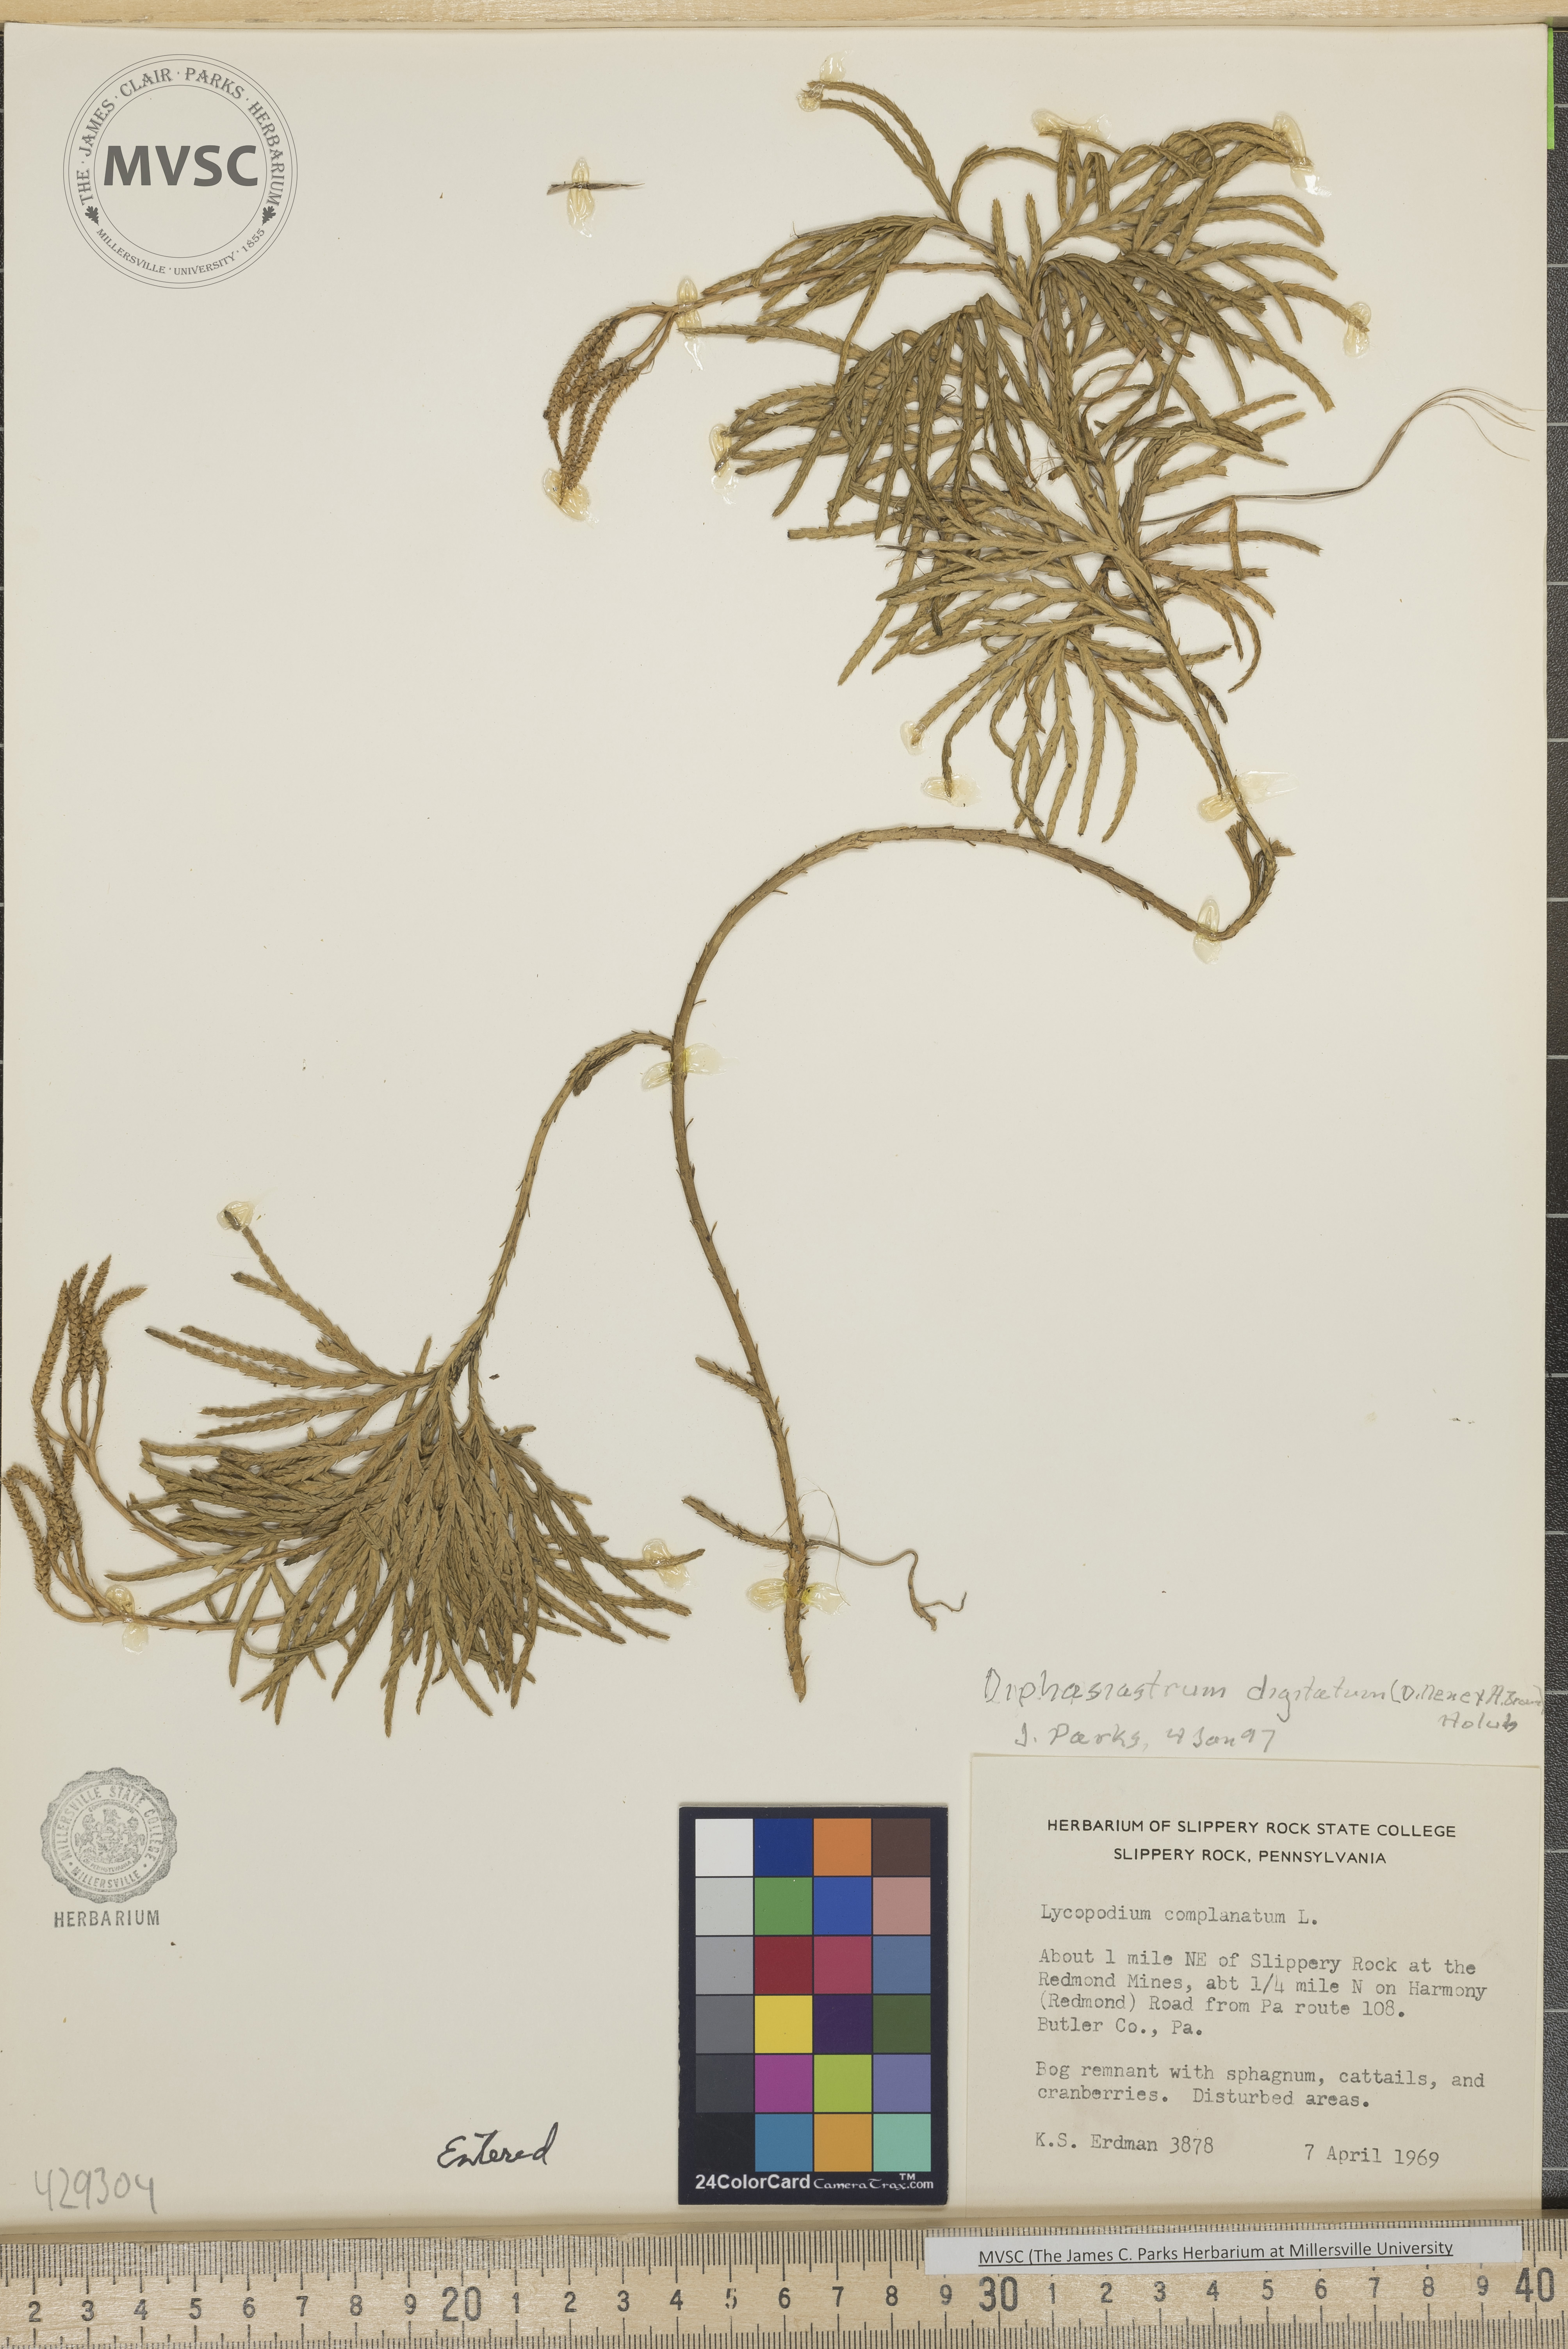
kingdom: Plantae
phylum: Tracheophyta
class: Lycopodiopsida
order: Lycopodiales
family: Lycopodiaceae
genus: Diphasiastrum
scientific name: Diphasiastrum digitatum
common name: Southern running-pine
